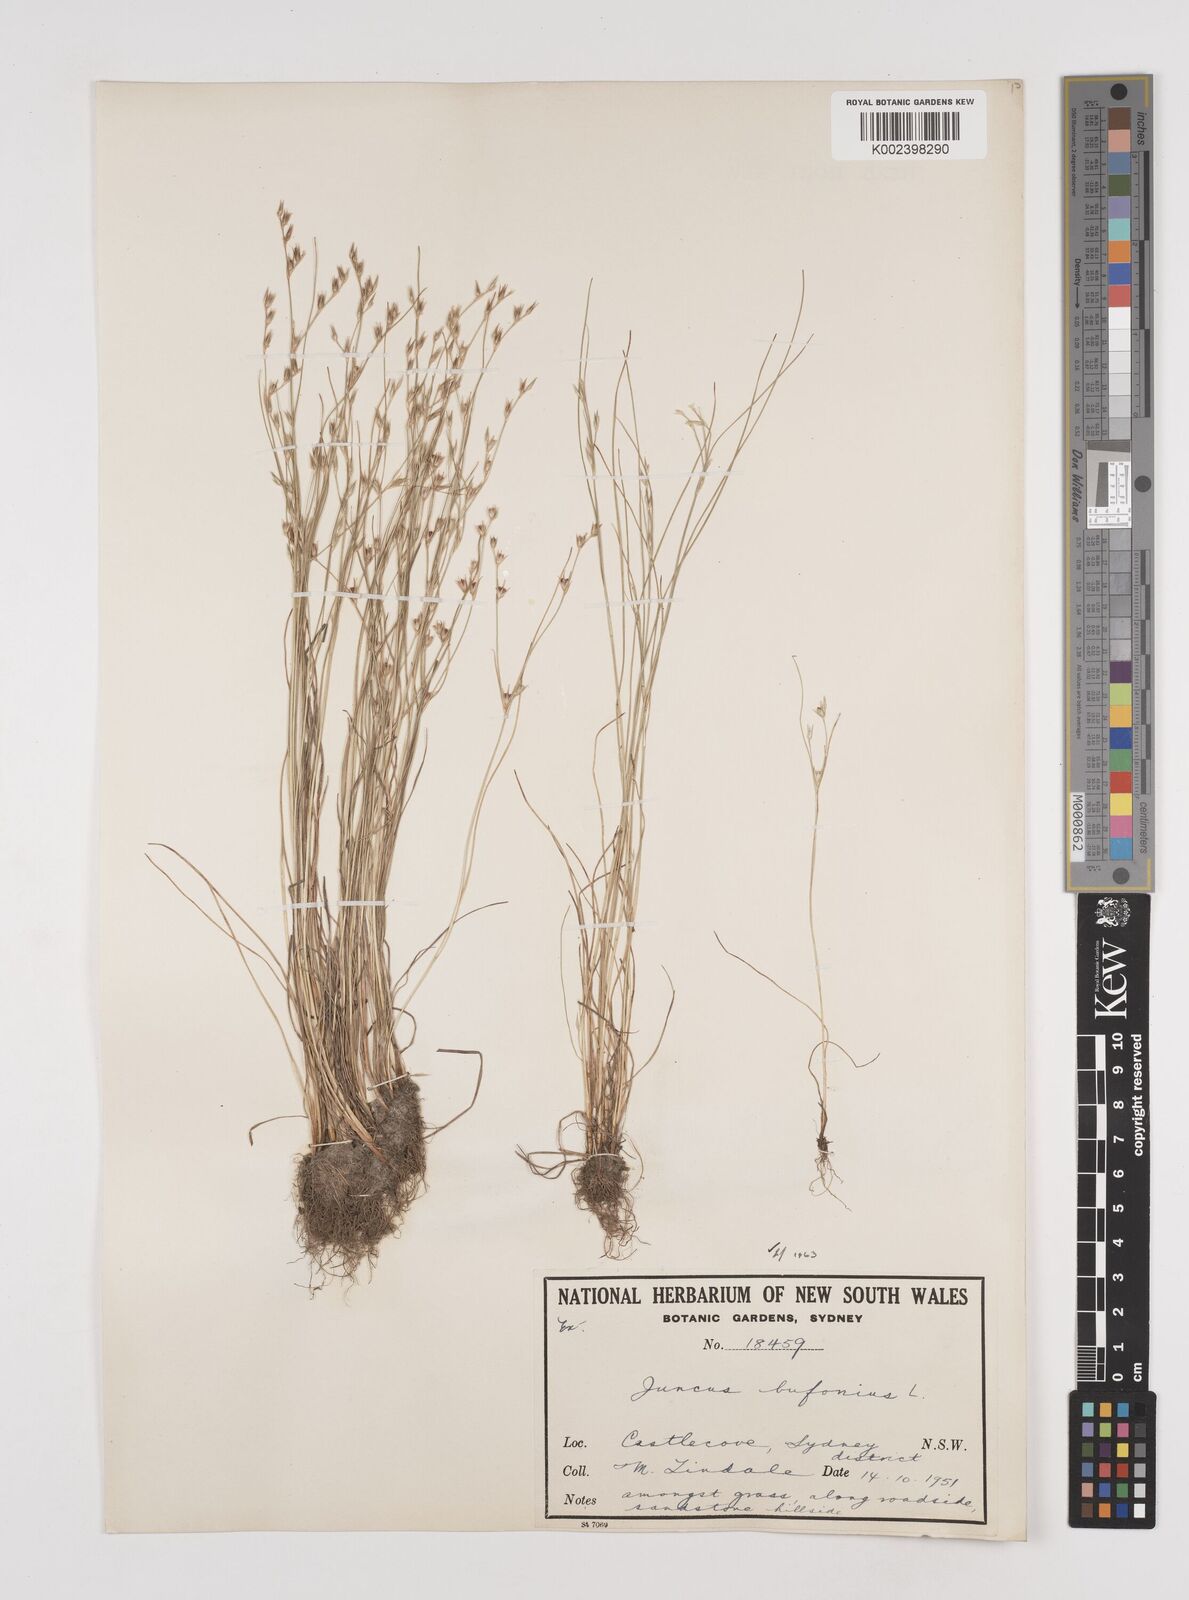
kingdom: Plantae
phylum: Tracheophyta
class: Liliopsida
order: Poales
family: Juncaceae
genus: Juncus
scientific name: Juncus ranarius
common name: Frog rush
